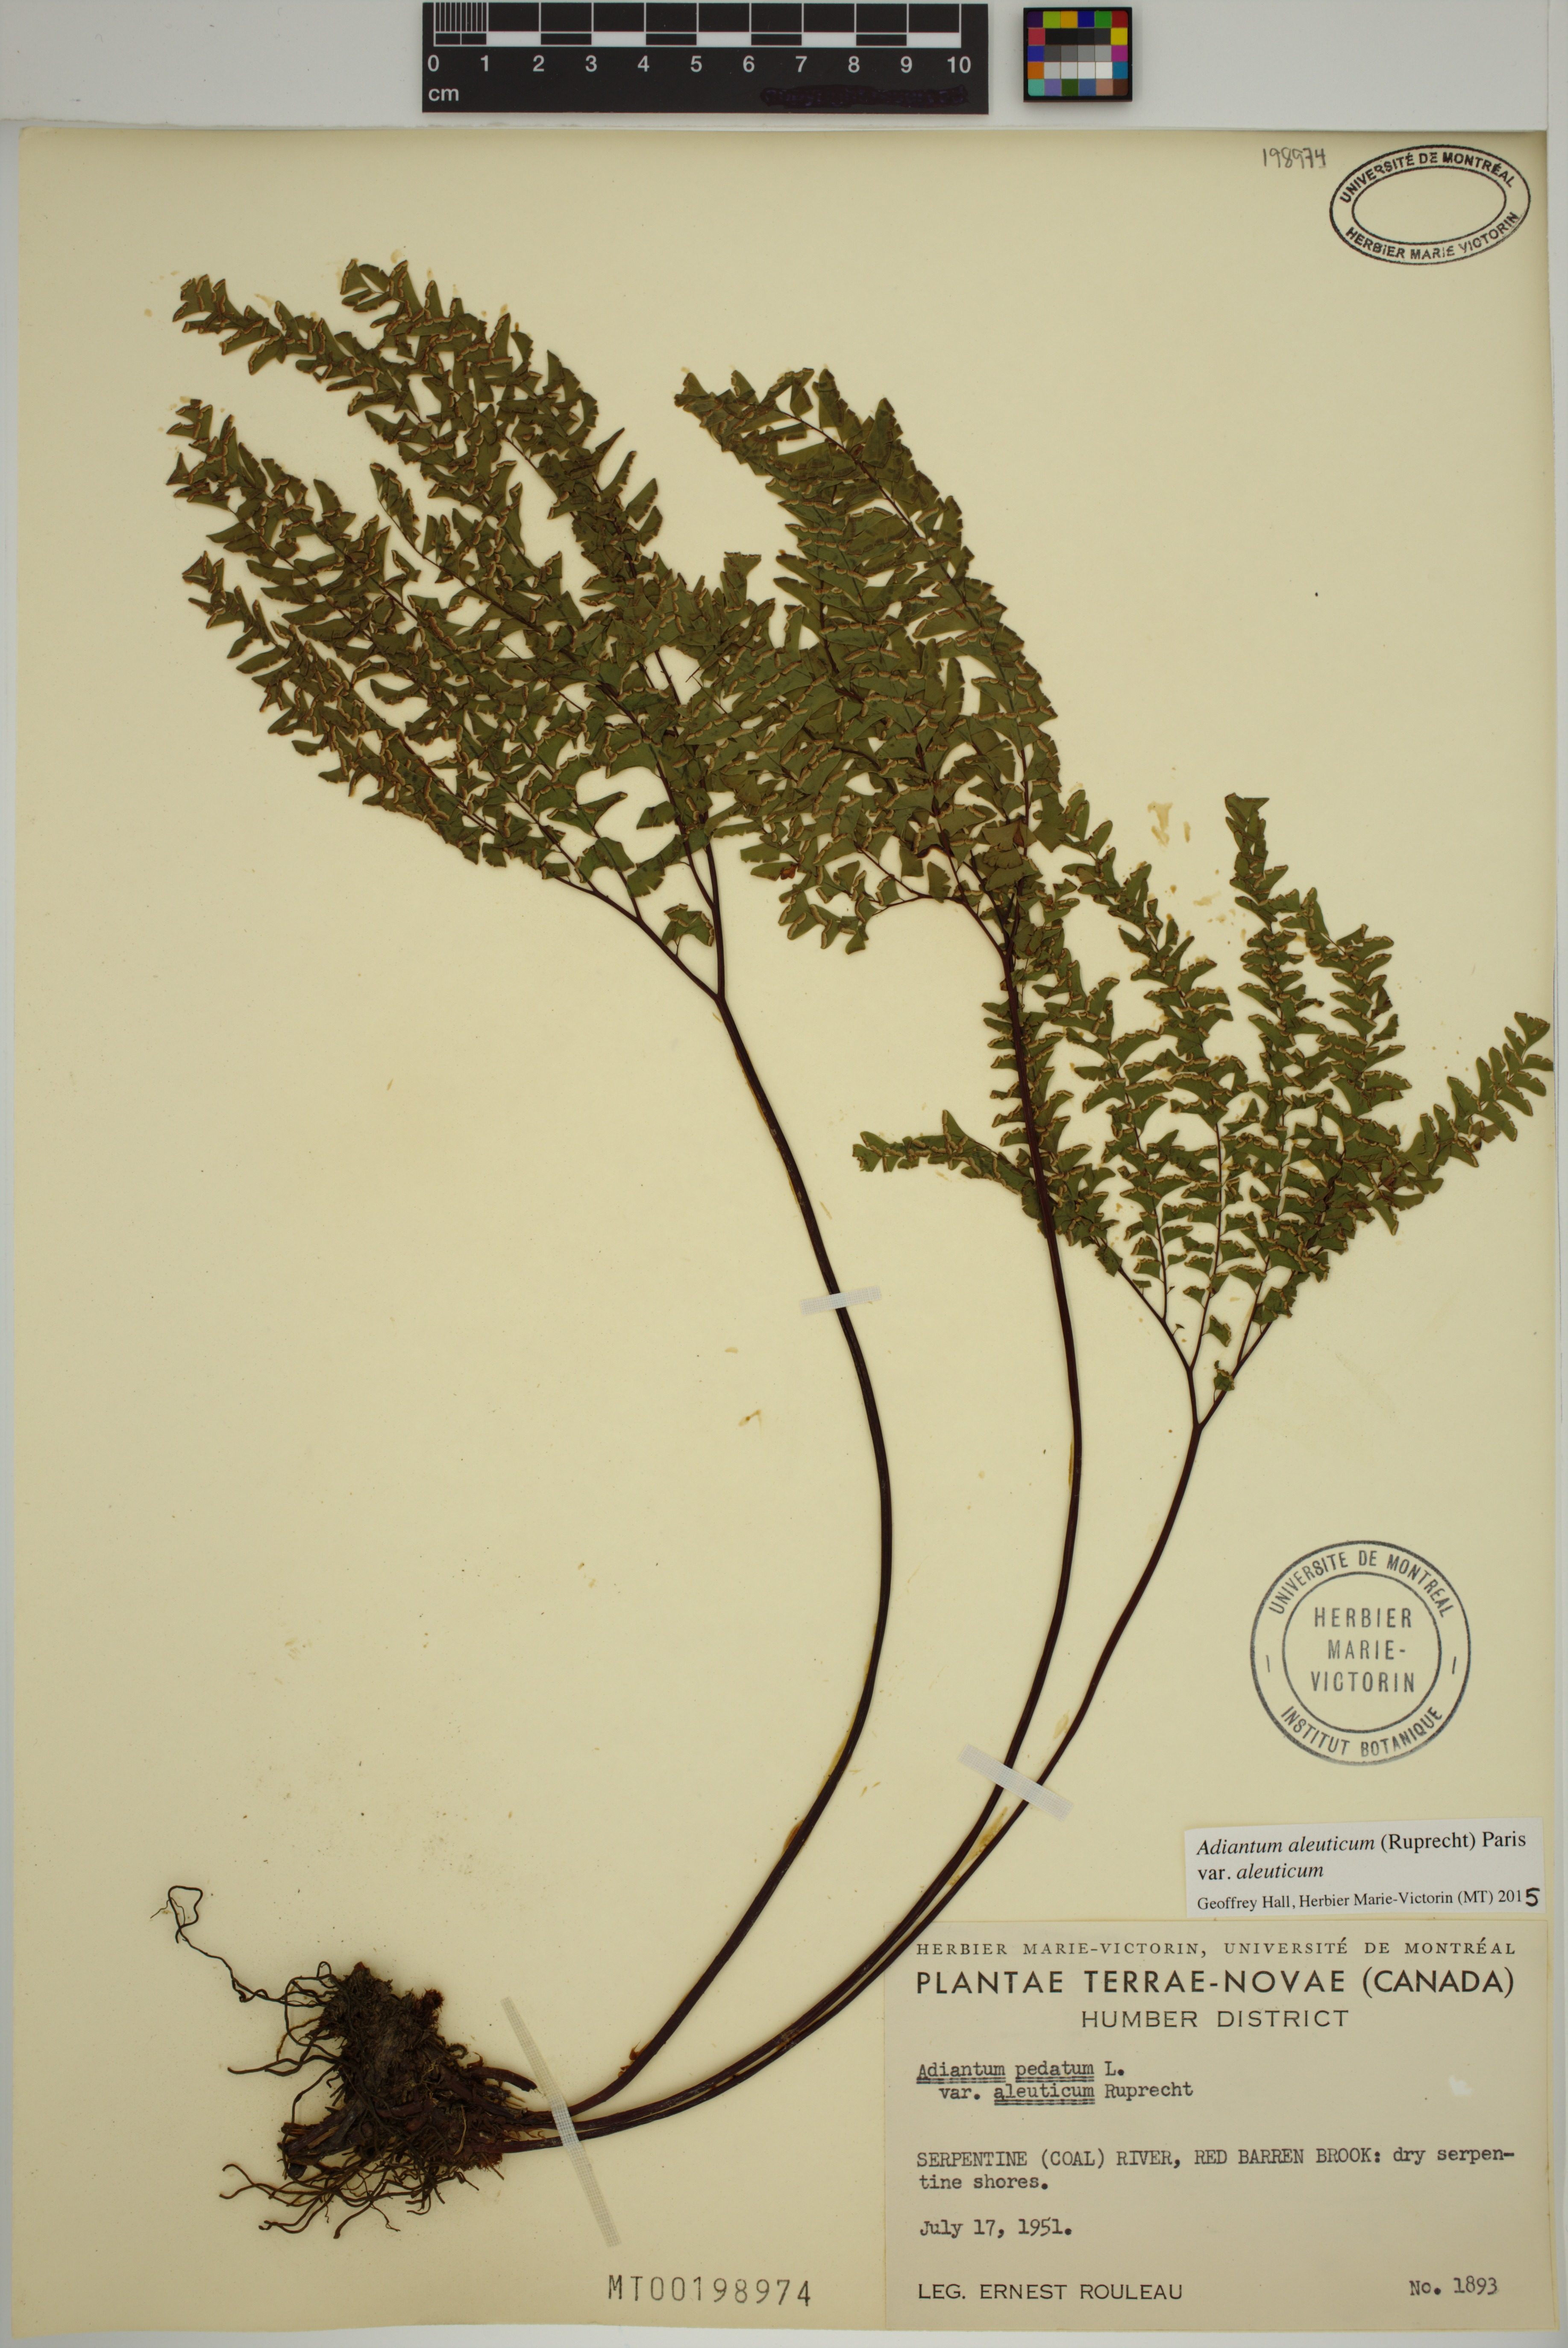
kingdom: Plantae
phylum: Tracheophyta
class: Polypodiopsida
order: Polypodiales
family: Pteridaceae
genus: Adiantum
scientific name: Adiantum aleuticum
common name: Aleutian maidenhair fern
